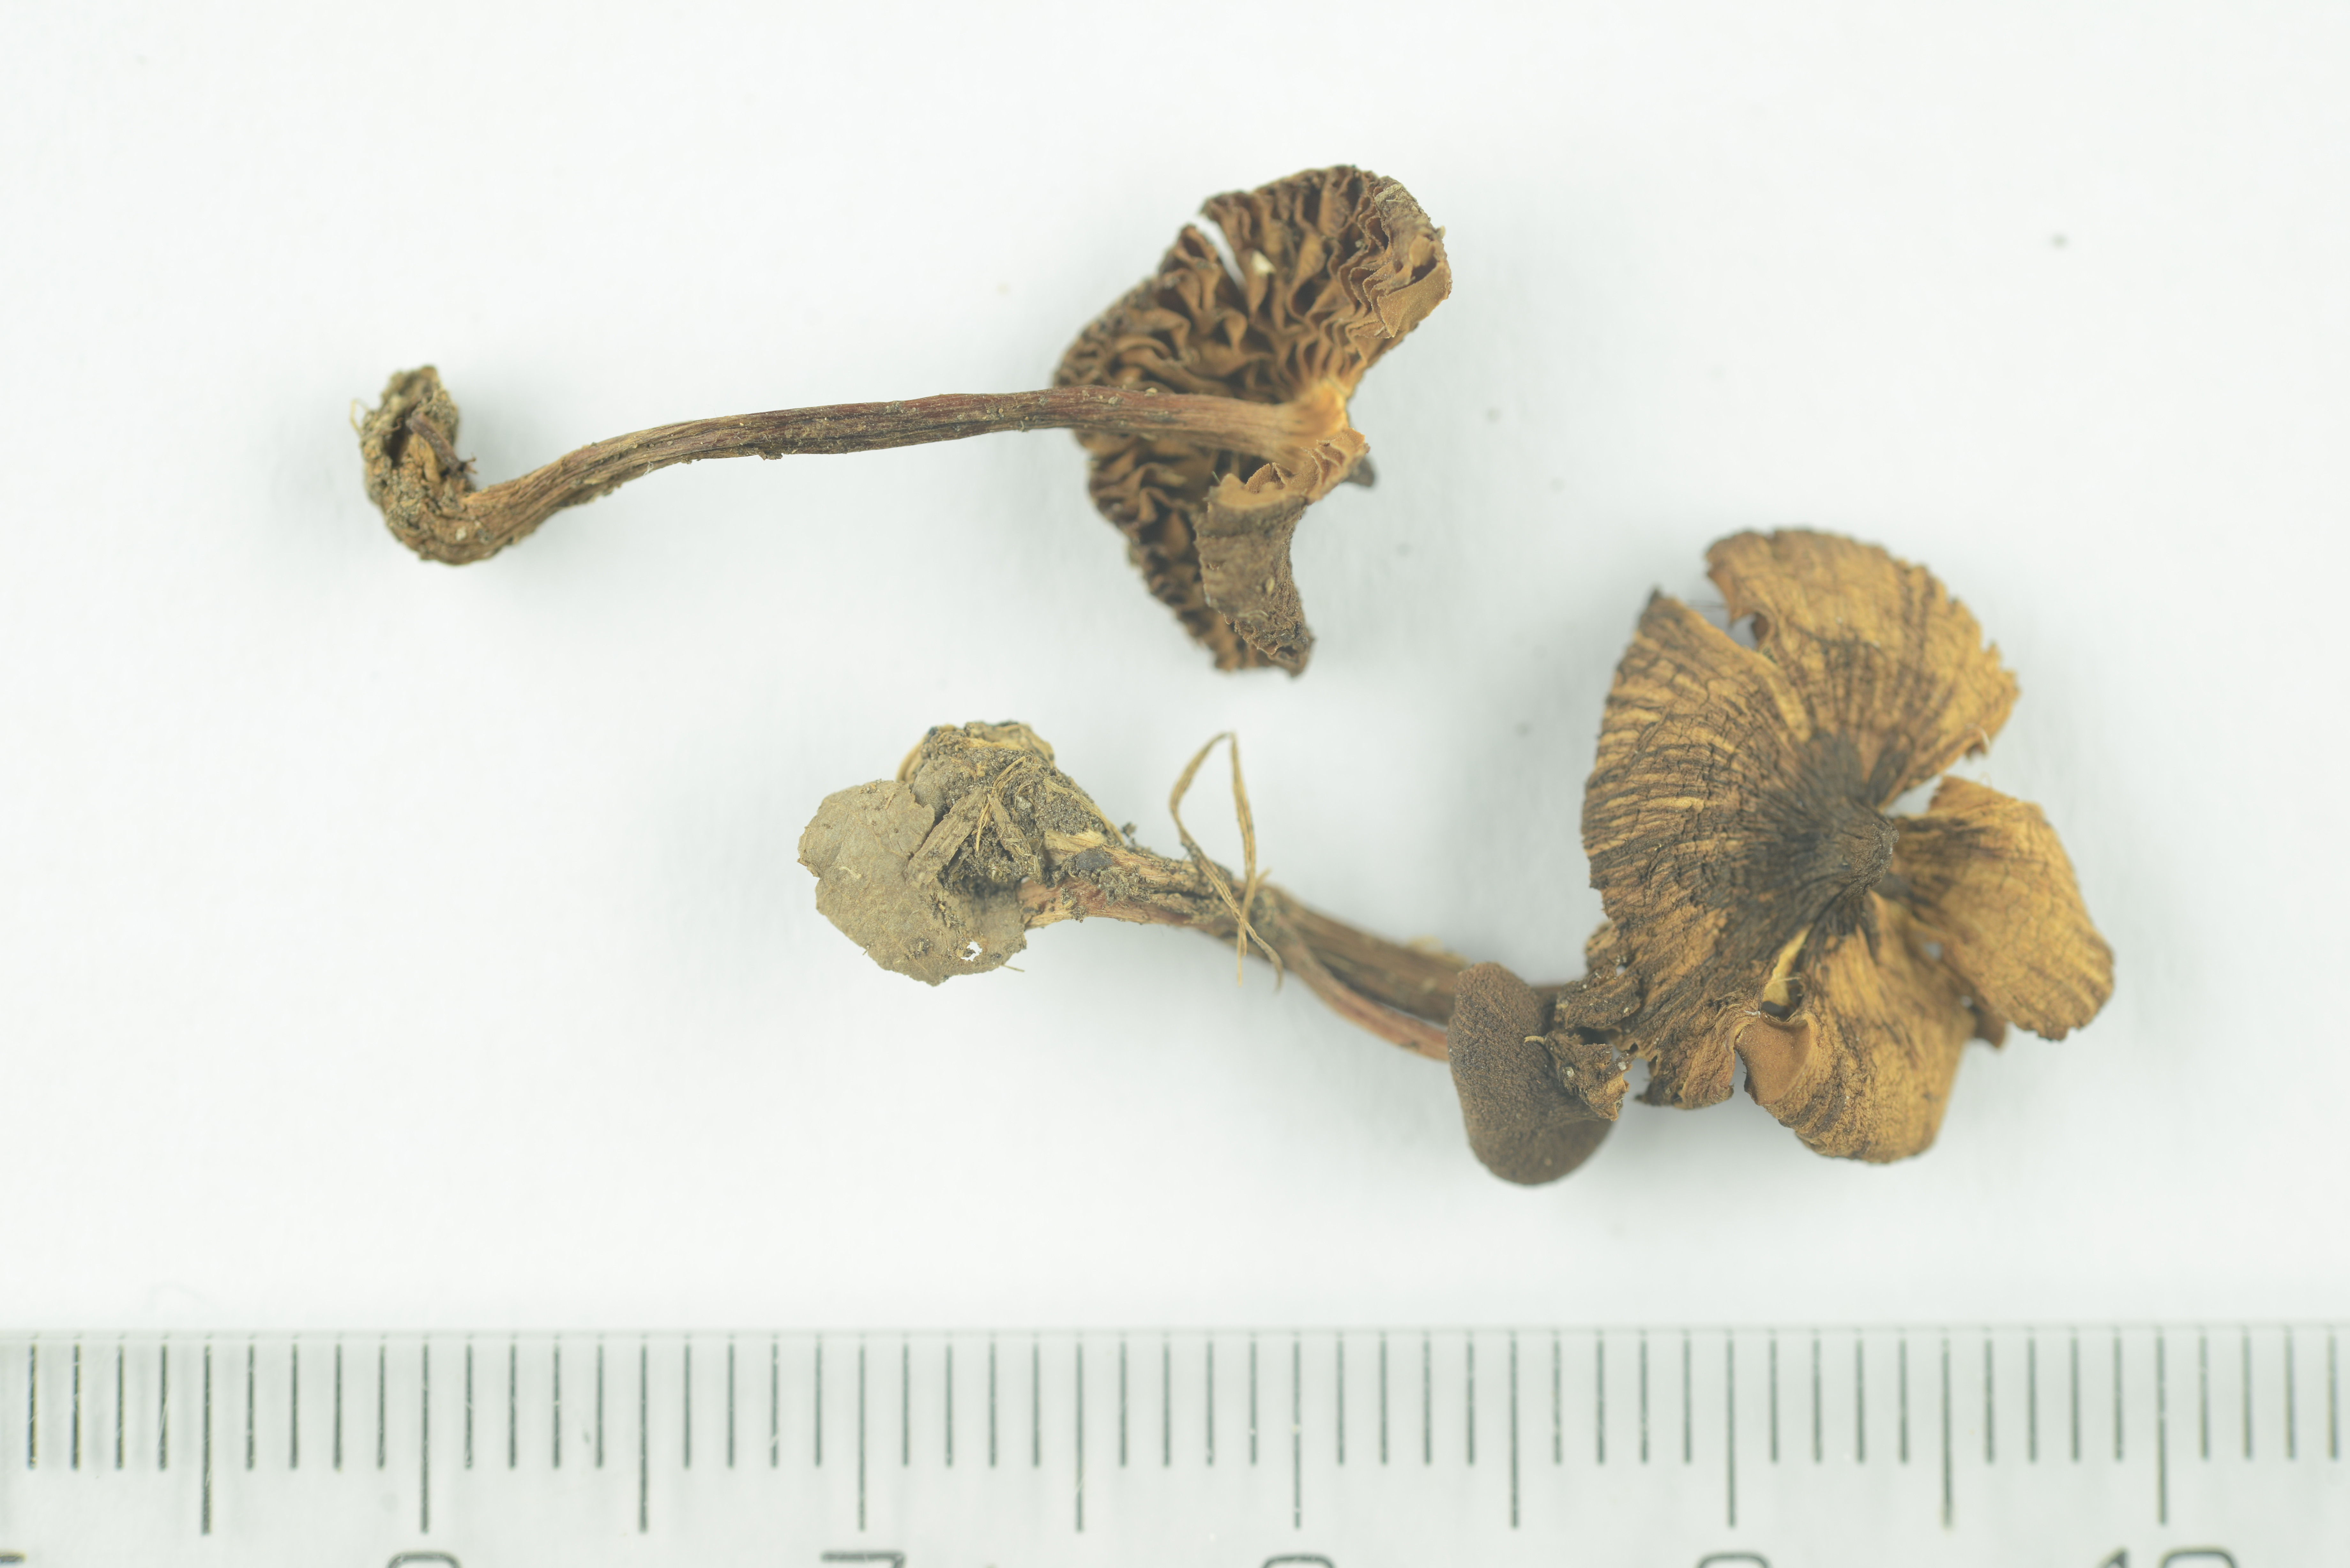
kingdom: Fungi
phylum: Basidiomycota
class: Agaricomycetes
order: Agaricales
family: Inocybaceae
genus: Inocybe
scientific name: Inocybe acuta
